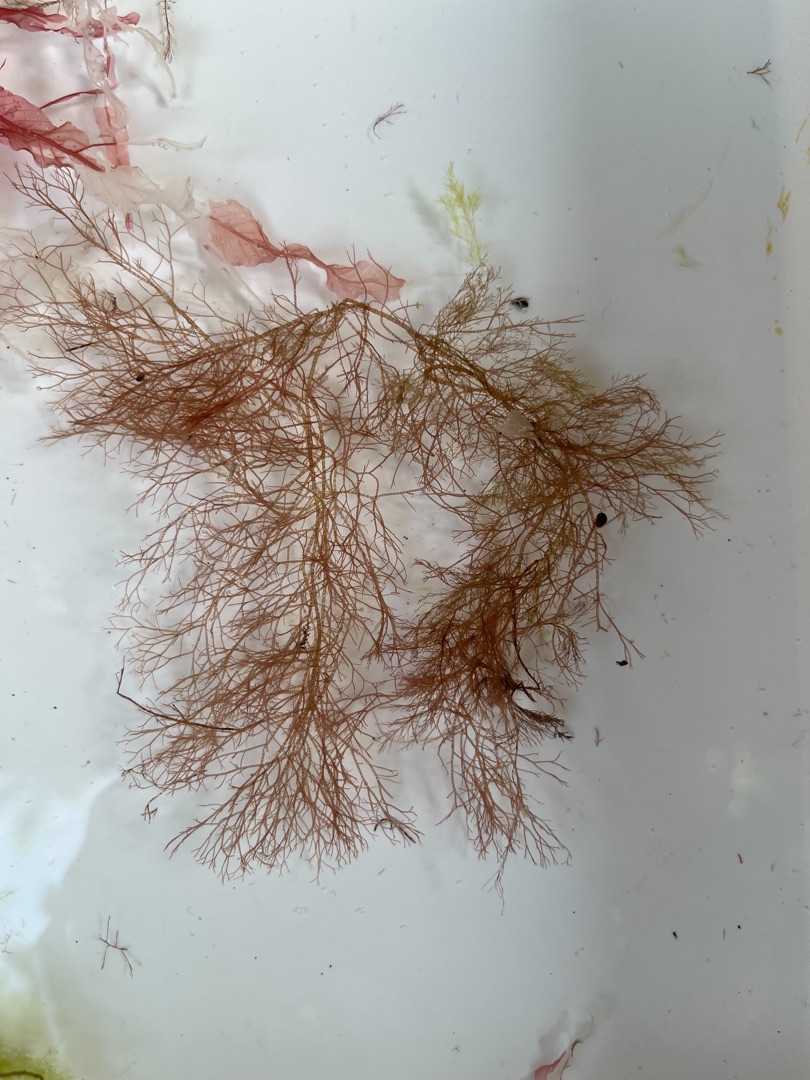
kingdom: Plantae
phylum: Rhodophyta
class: Florideophyceae
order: Ceramiales
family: Ceramiaceae
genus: Ceramium
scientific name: Ceramium
